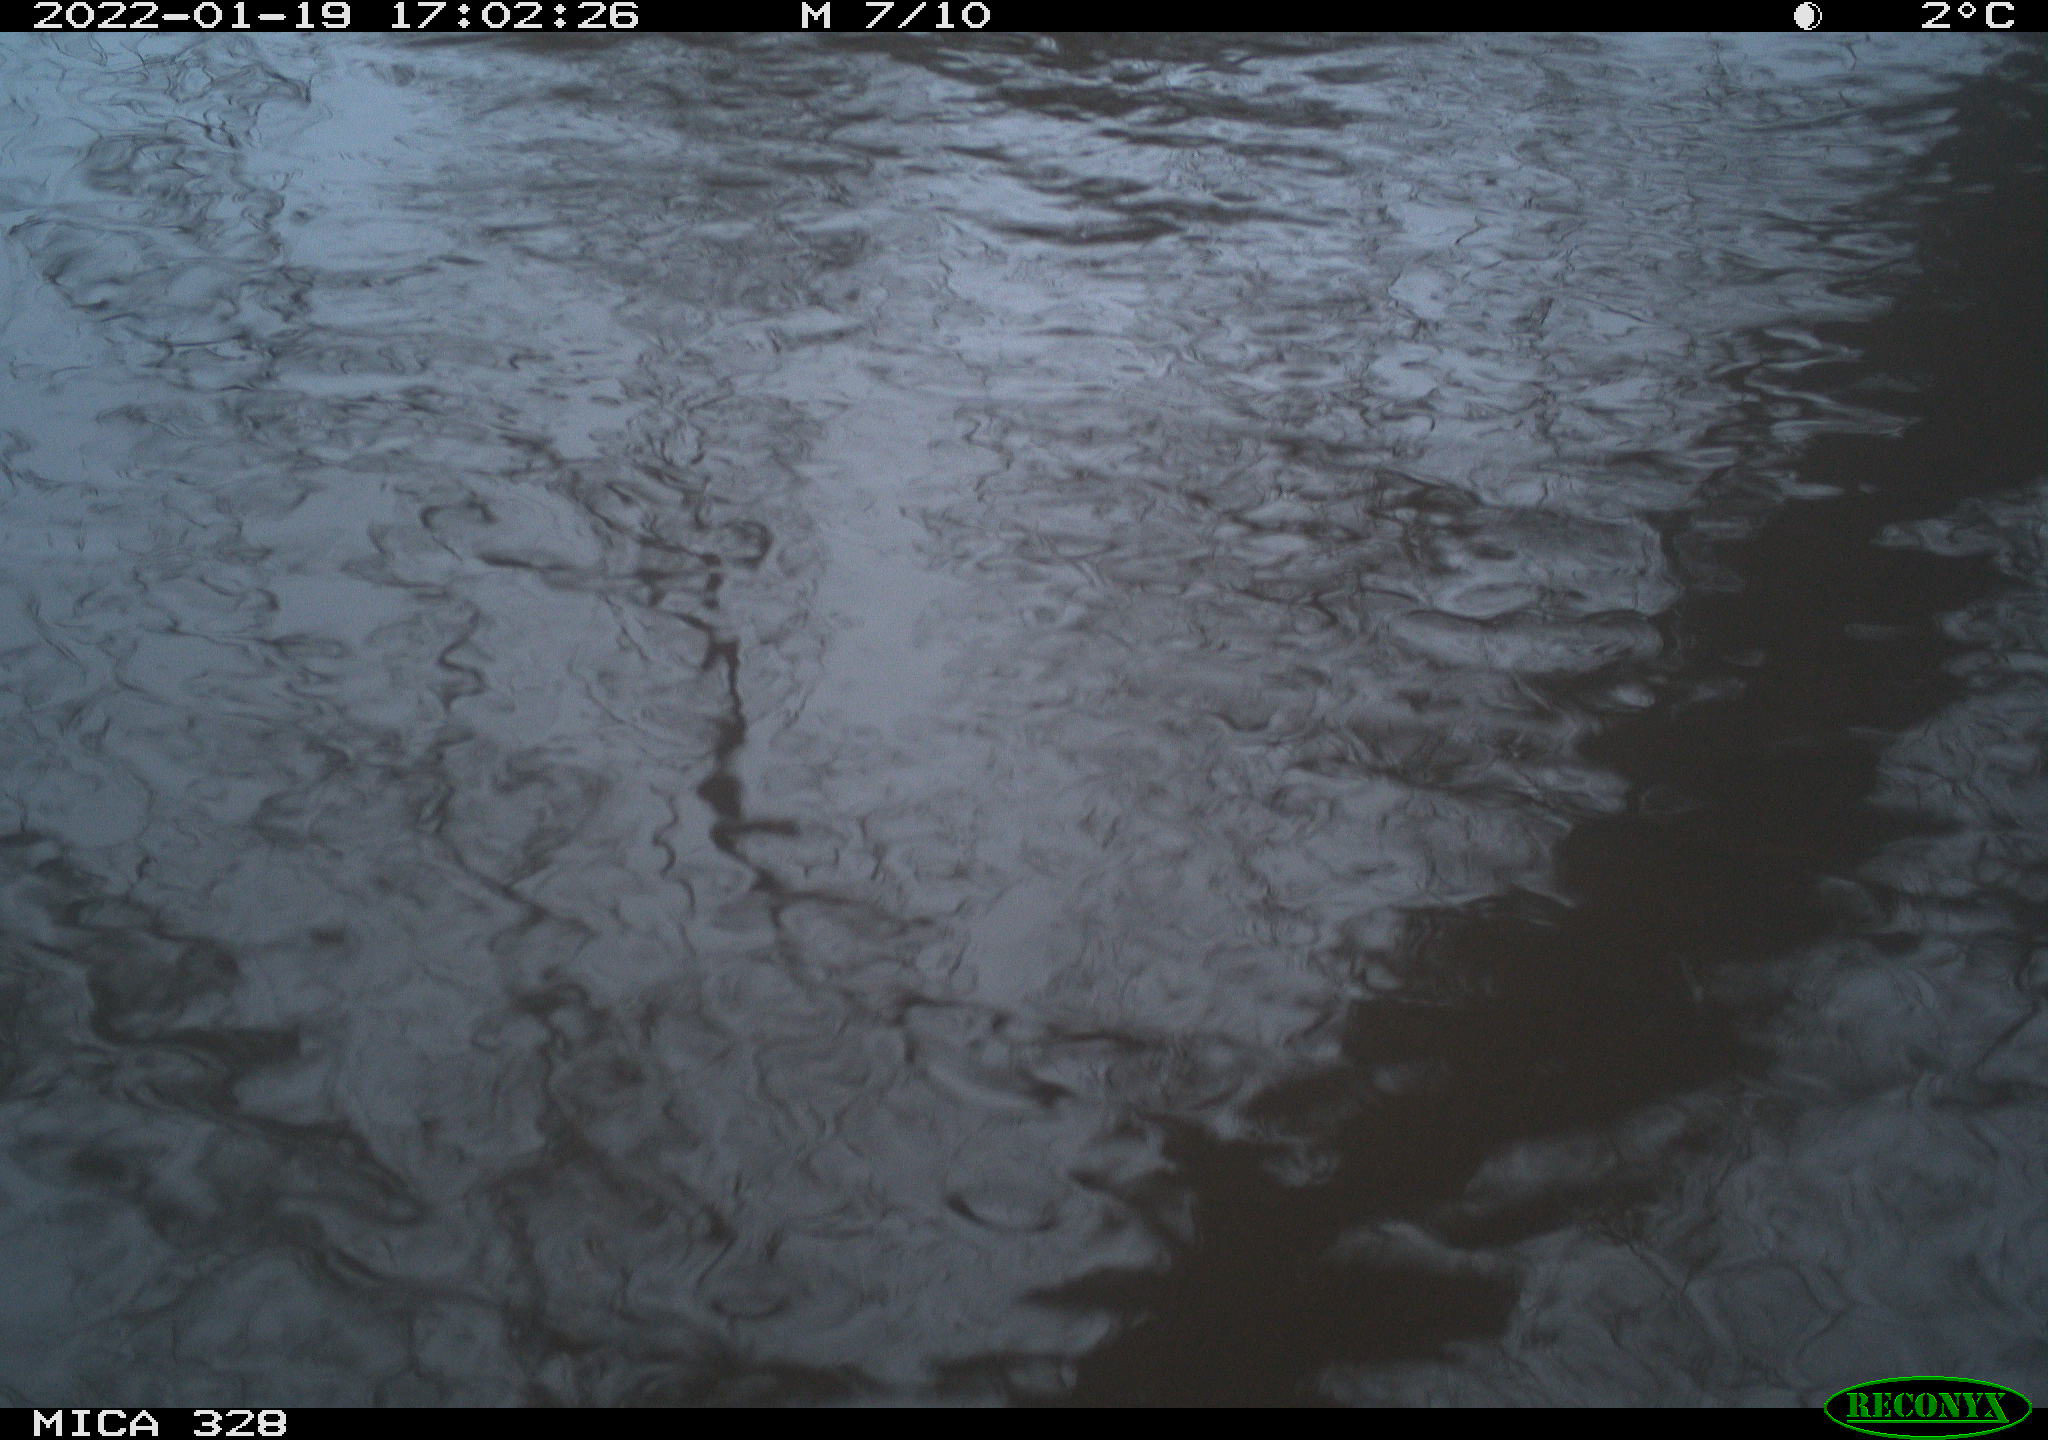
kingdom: Animalia
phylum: Chordata
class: Mammalia
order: Rodentia
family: Cricetidae
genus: Ondatra
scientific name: Ondatra zibethicus
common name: Muskrat
